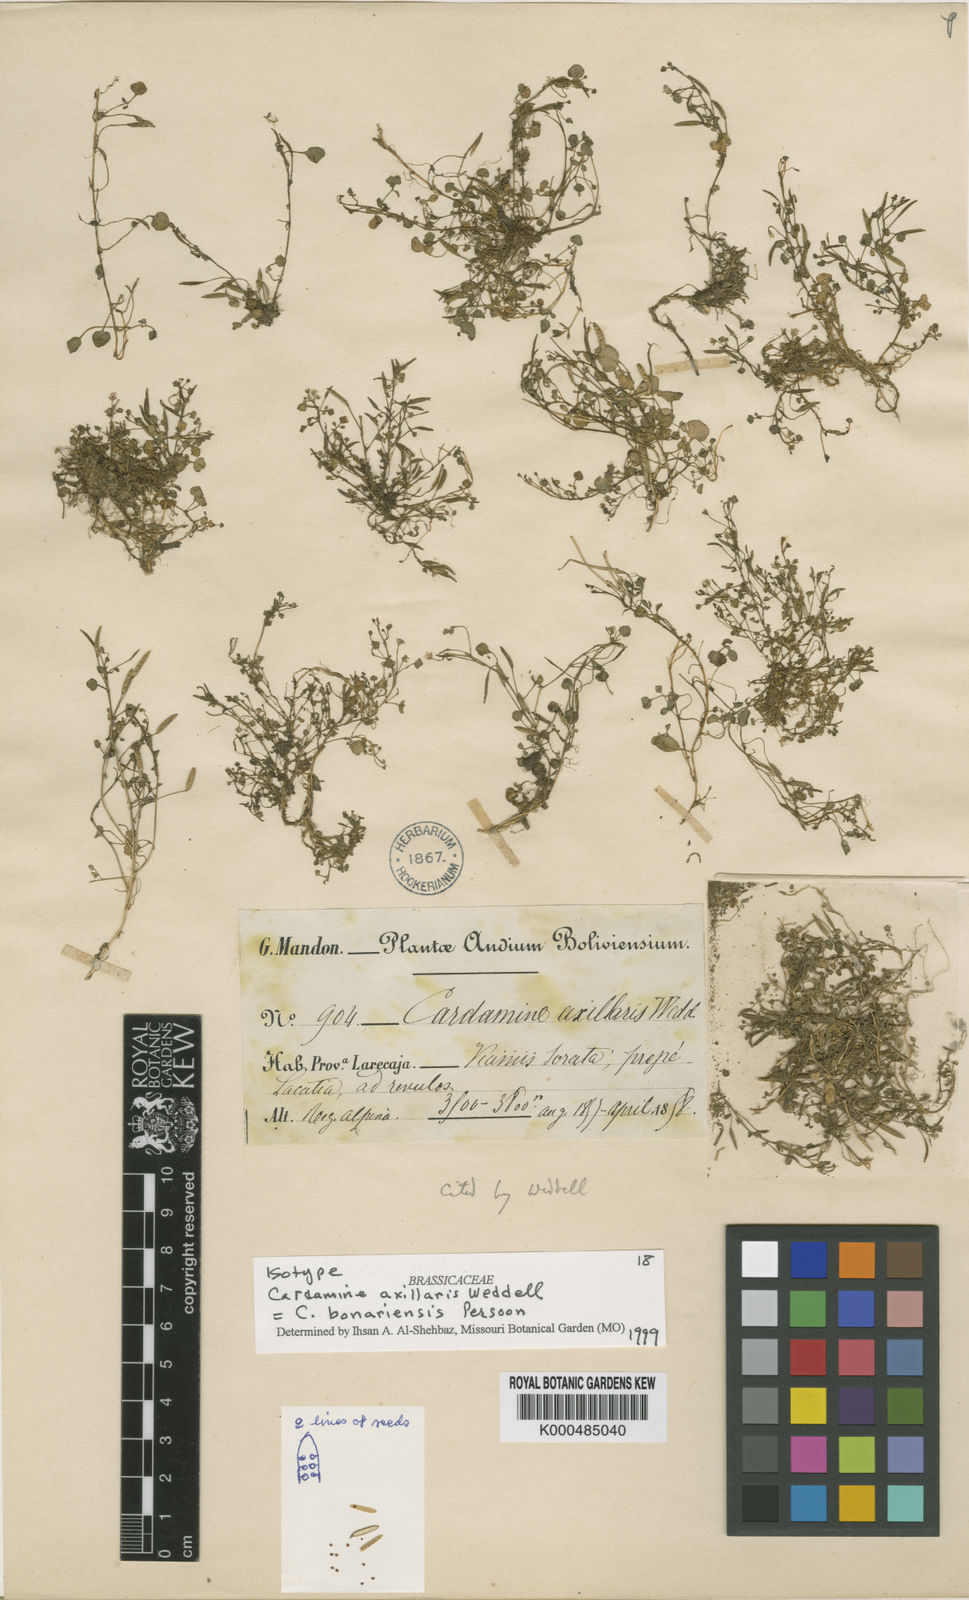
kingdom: Plantae
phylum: Tracheophyta
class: Magnoliopsida
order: Brassicales
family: Brassicaceae
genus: Cardamine
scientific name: Cardamine bonariensis
